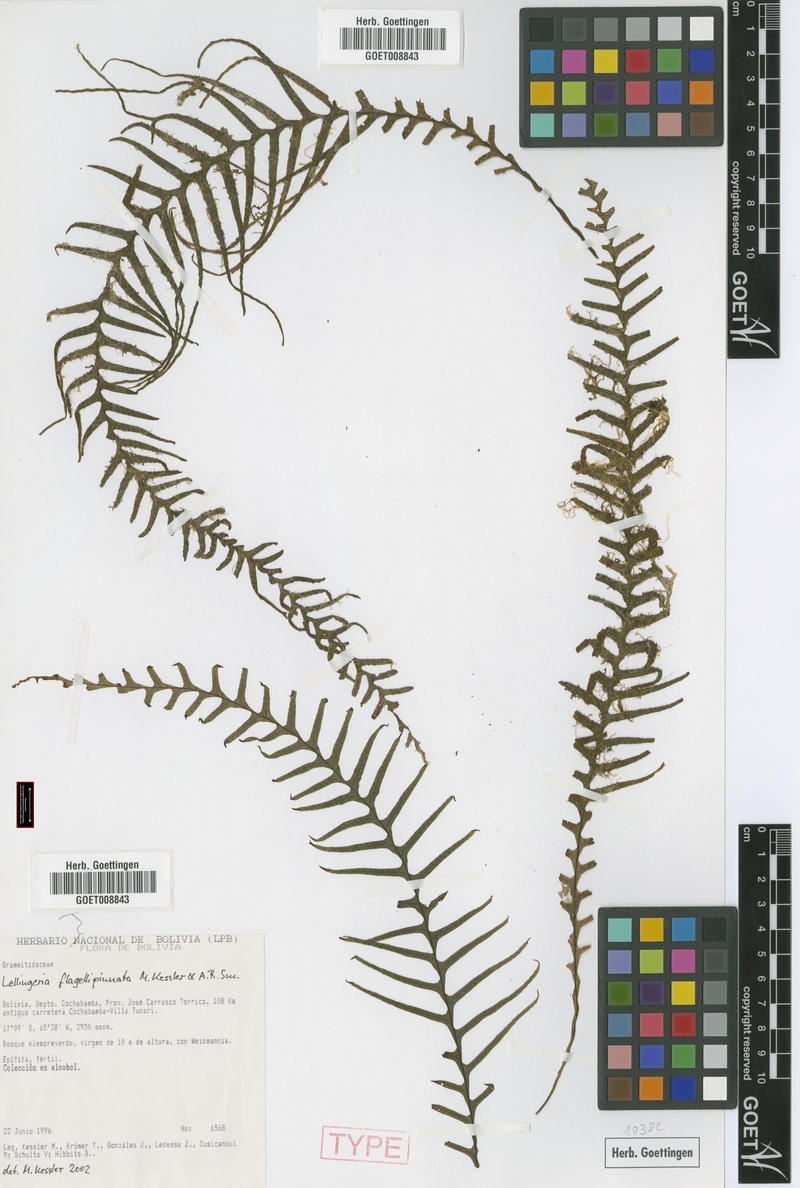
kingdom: Plantae
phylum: Tracheophyta
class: Polypodiopsida
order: Polypodiales
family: Polypodiaceae
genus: Lellingeria
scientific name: Lellingeria flagellipinnata
